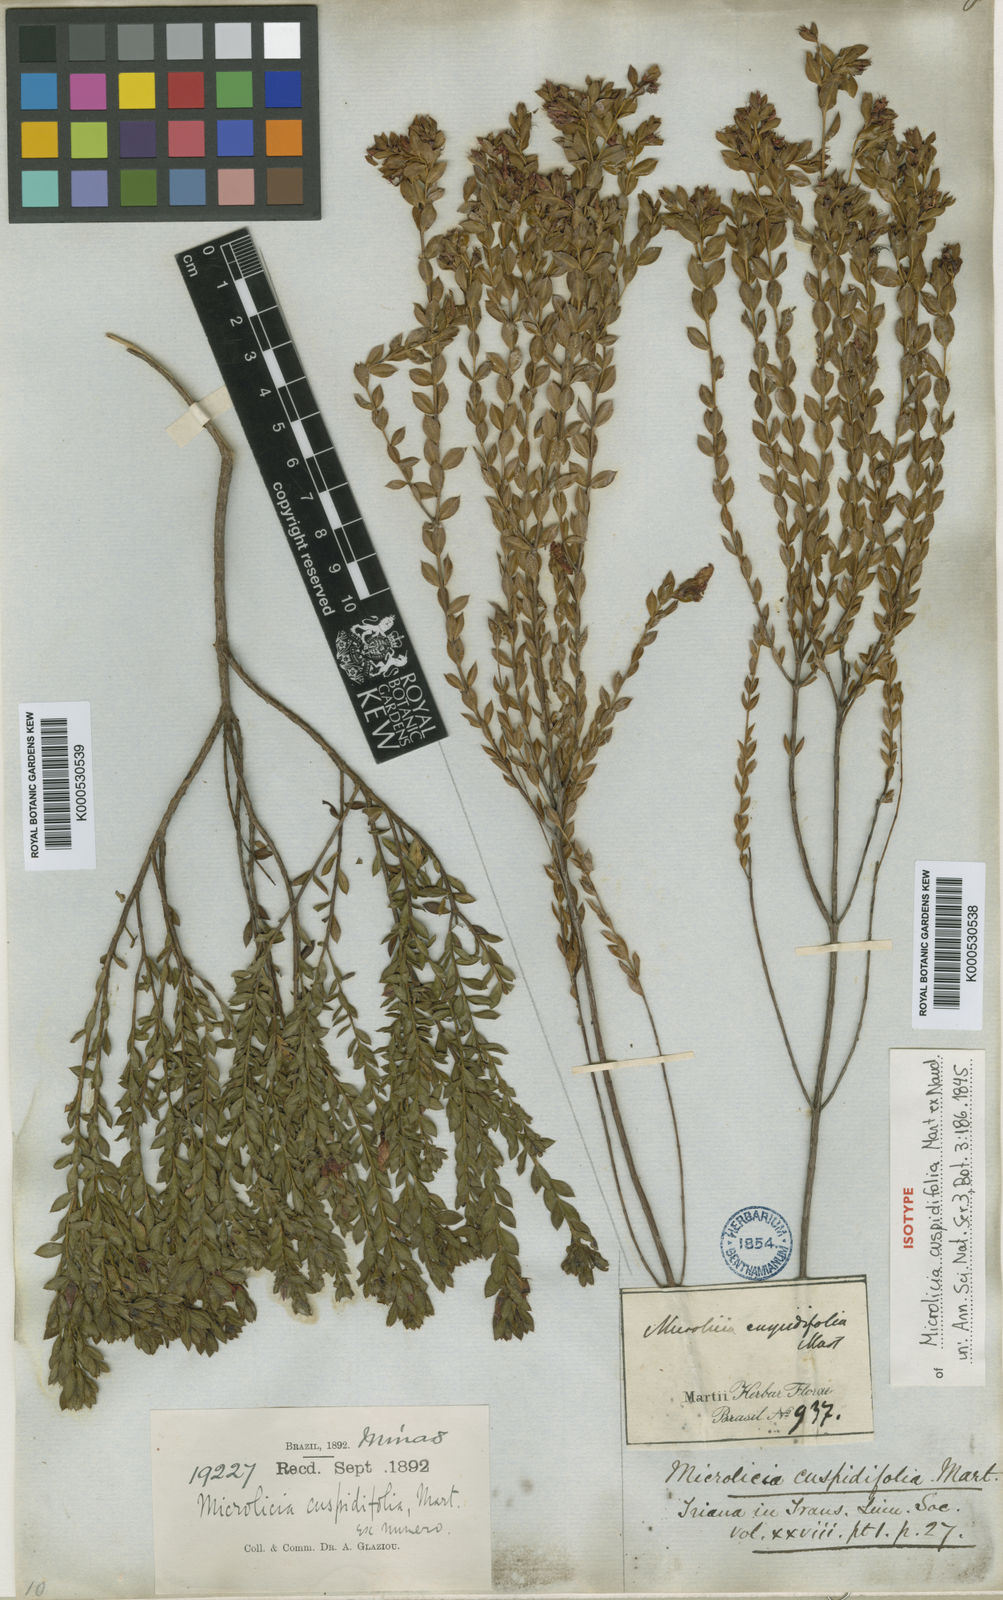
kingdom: Plantae
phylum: Tracheophyta
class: Magnoliopsida
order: Myrtales
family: Melastomataceae
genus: Microlicia
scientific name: Microlicia
